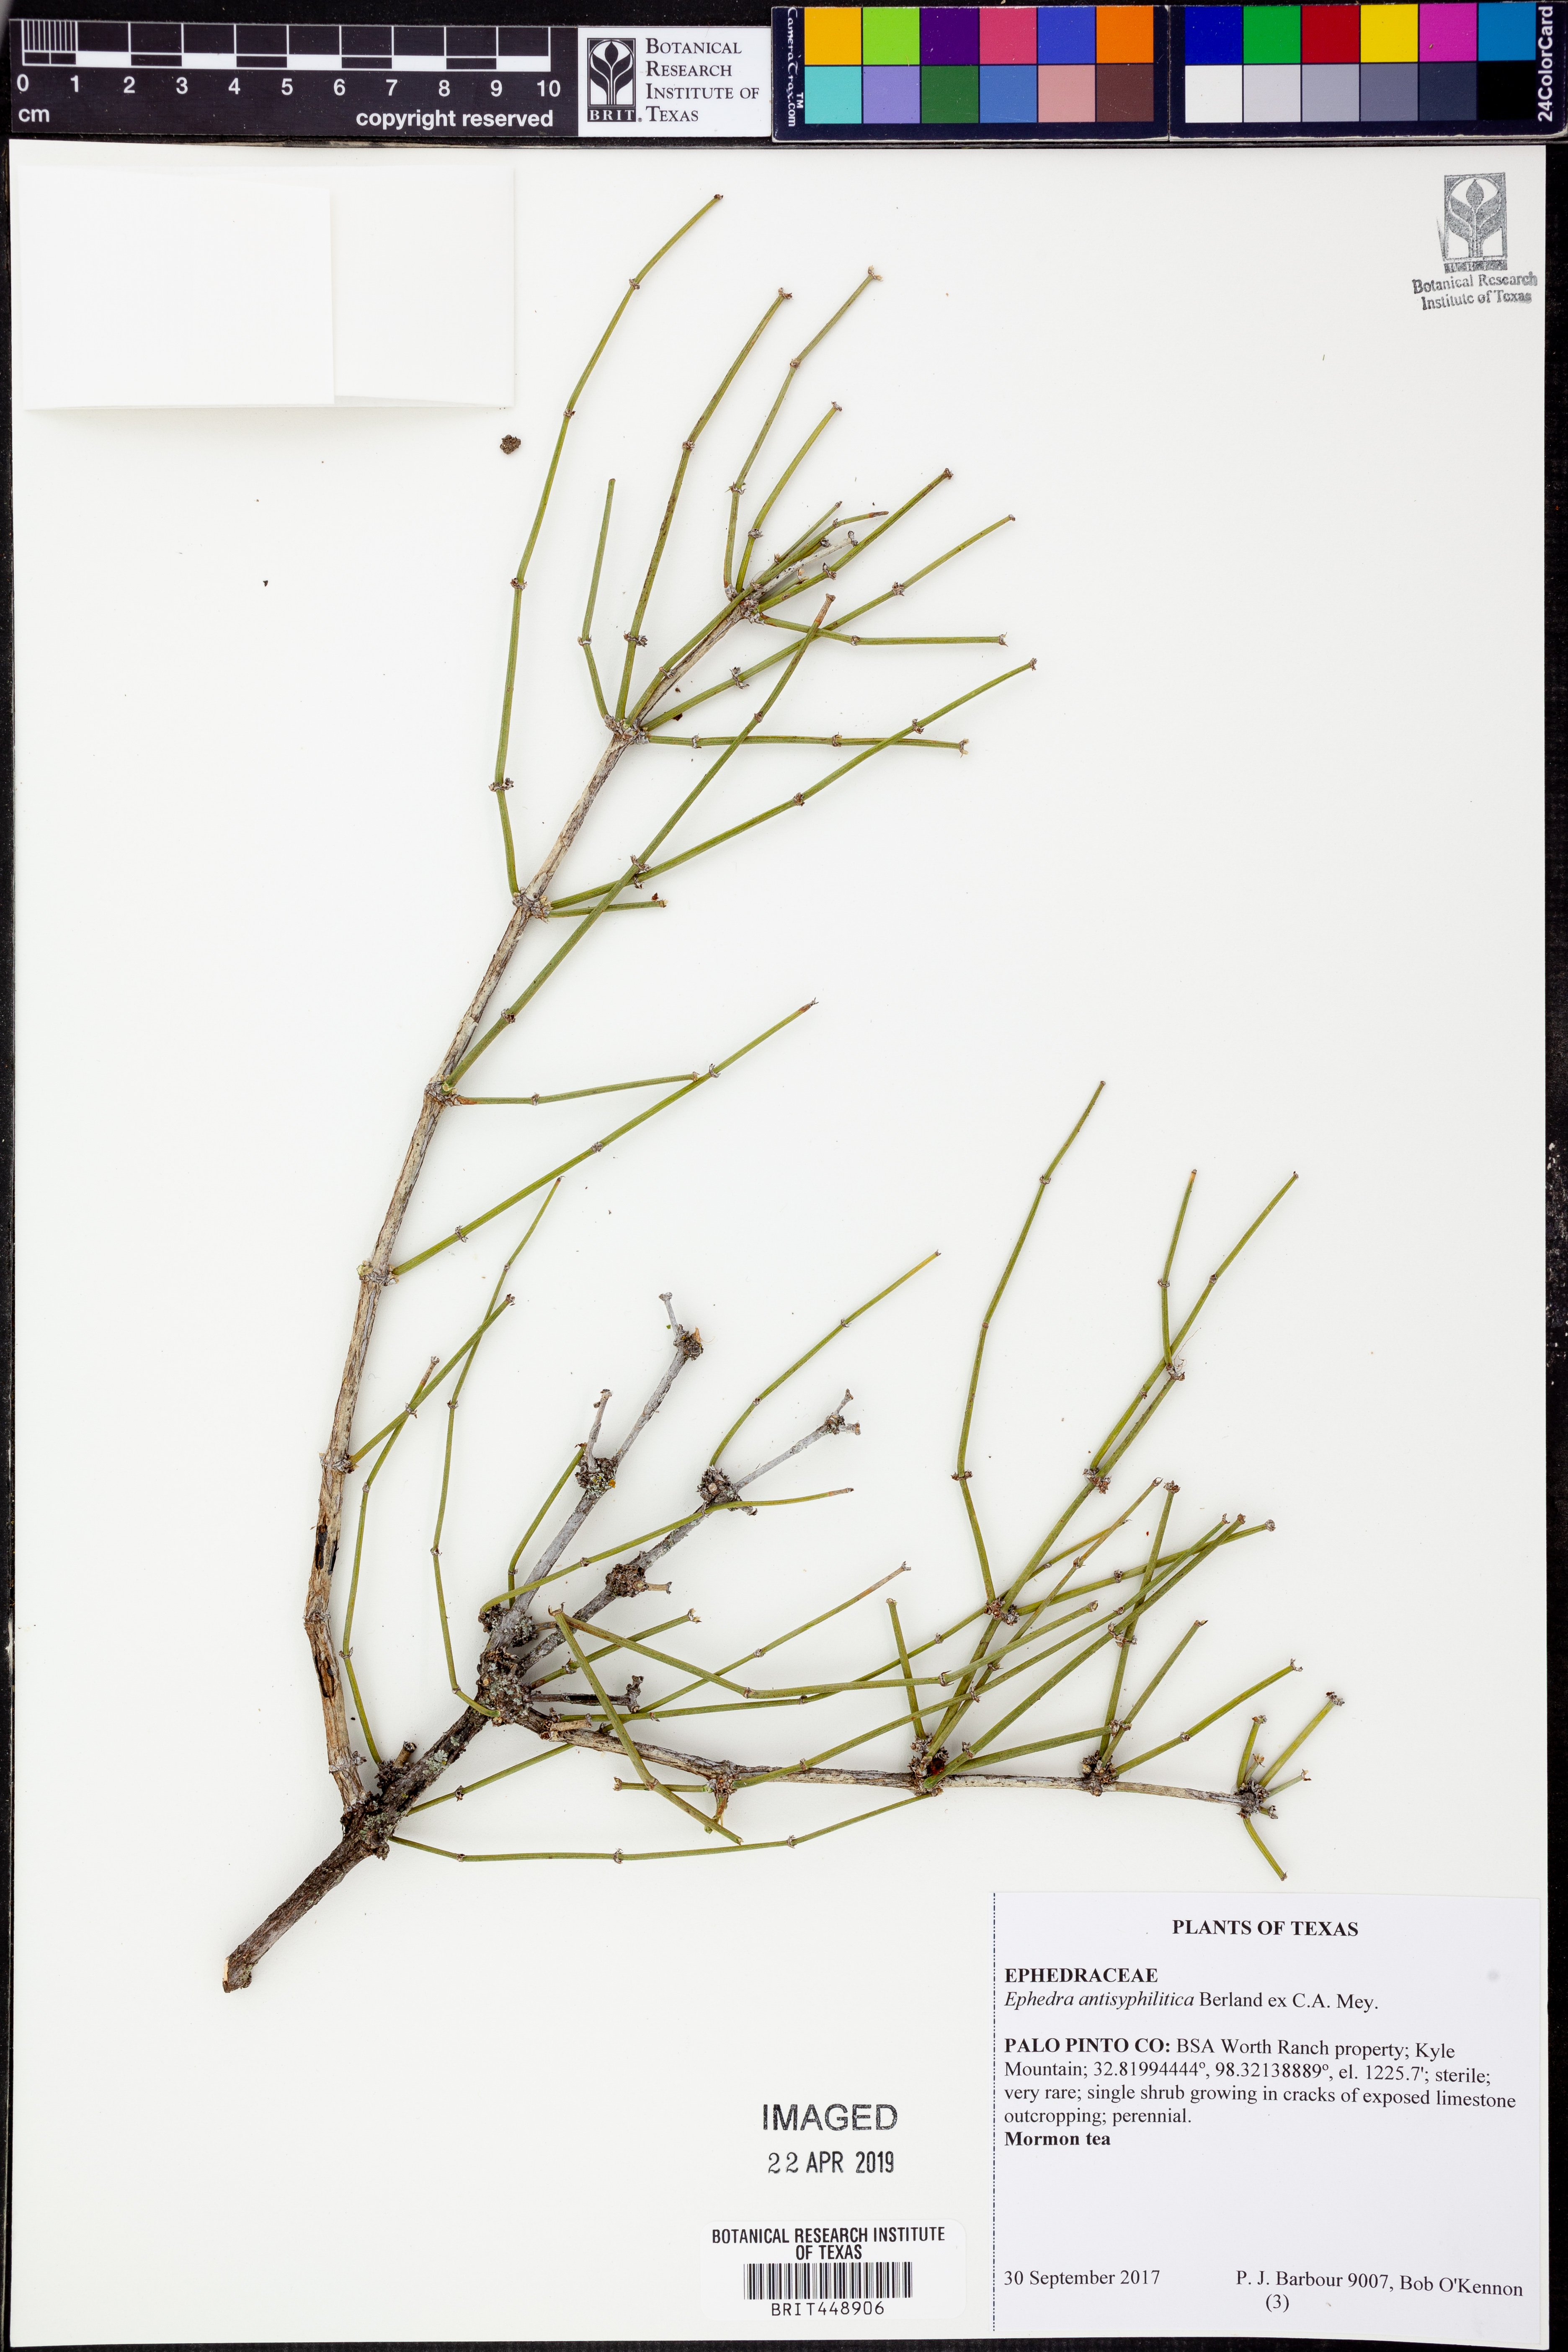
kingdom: Plantae
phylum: Tracheophyta
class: Gnetopsida
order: Ephedrales
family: Ephedraceae
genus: Ephedra
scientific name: Ephedra nevadensis
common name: Gray ephedra
